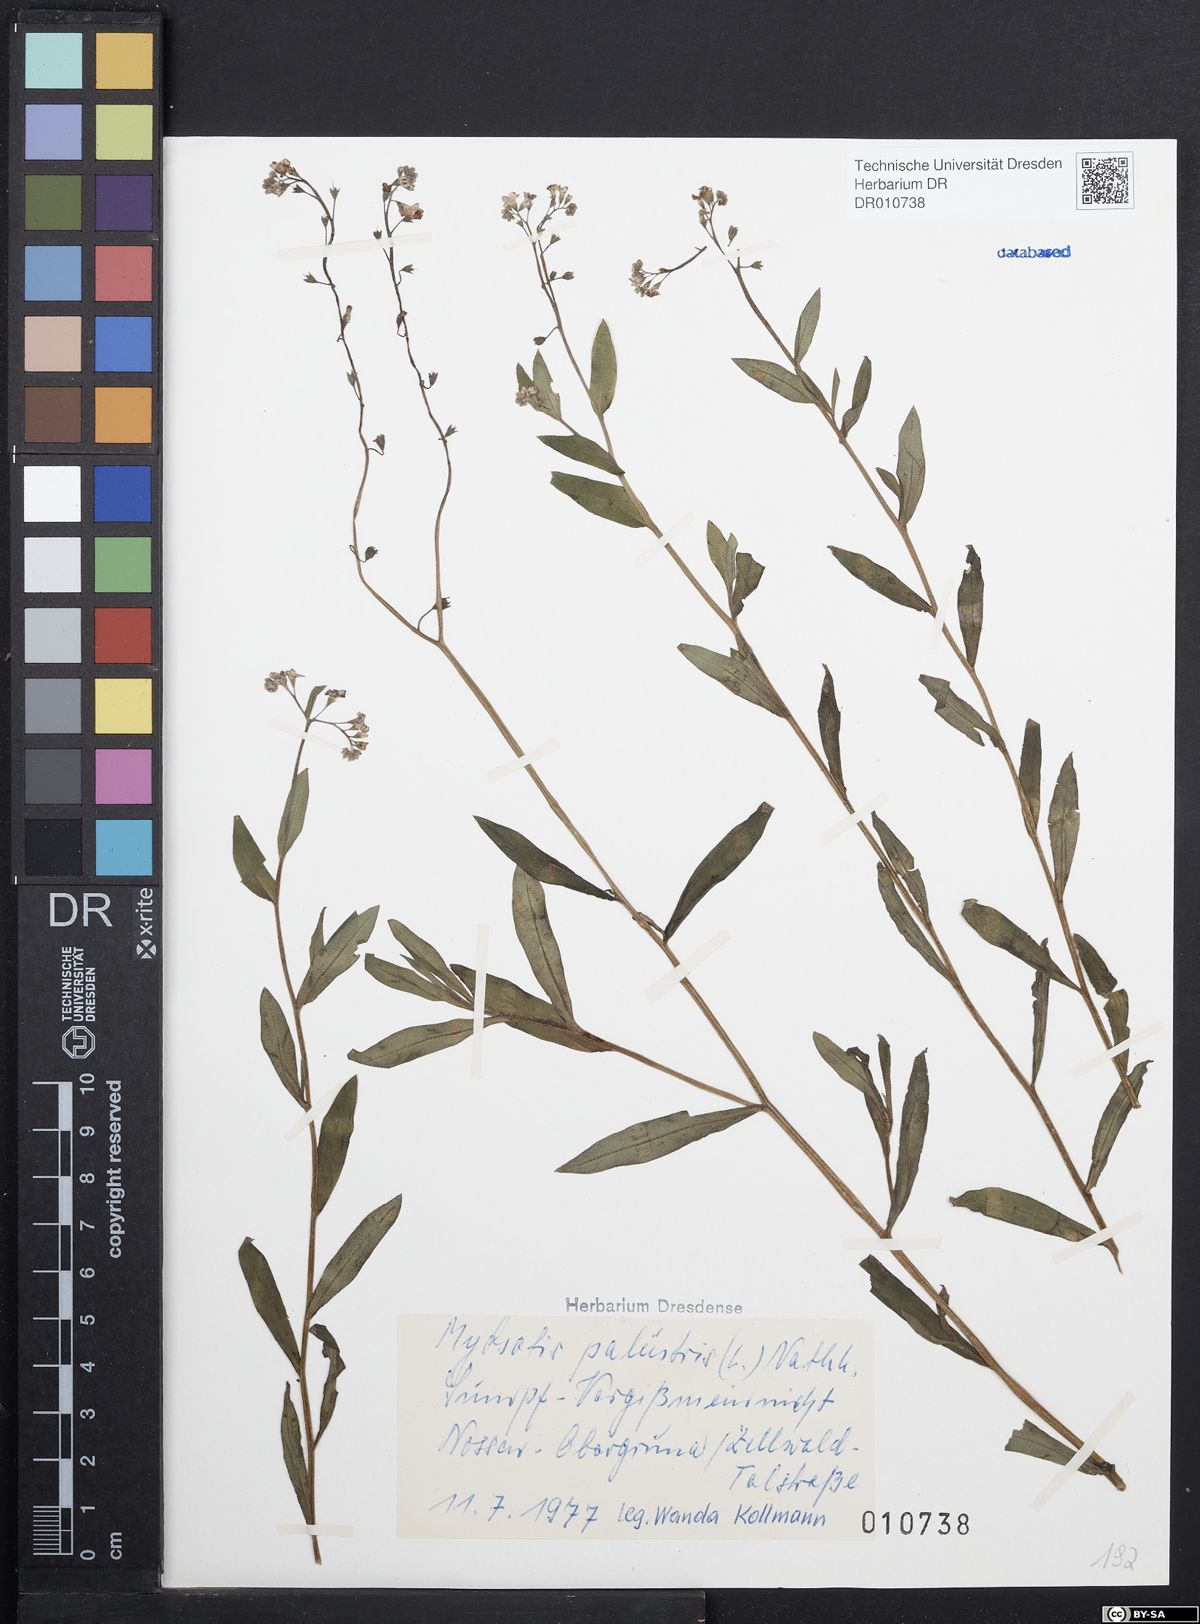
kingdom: Plantae
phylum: Tracheophyta
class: Magnoliopsida
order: Boraginales
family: Boraginaceae
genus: Myosotis
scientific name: Myosotis scorpioides
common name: Water forget-me-not
